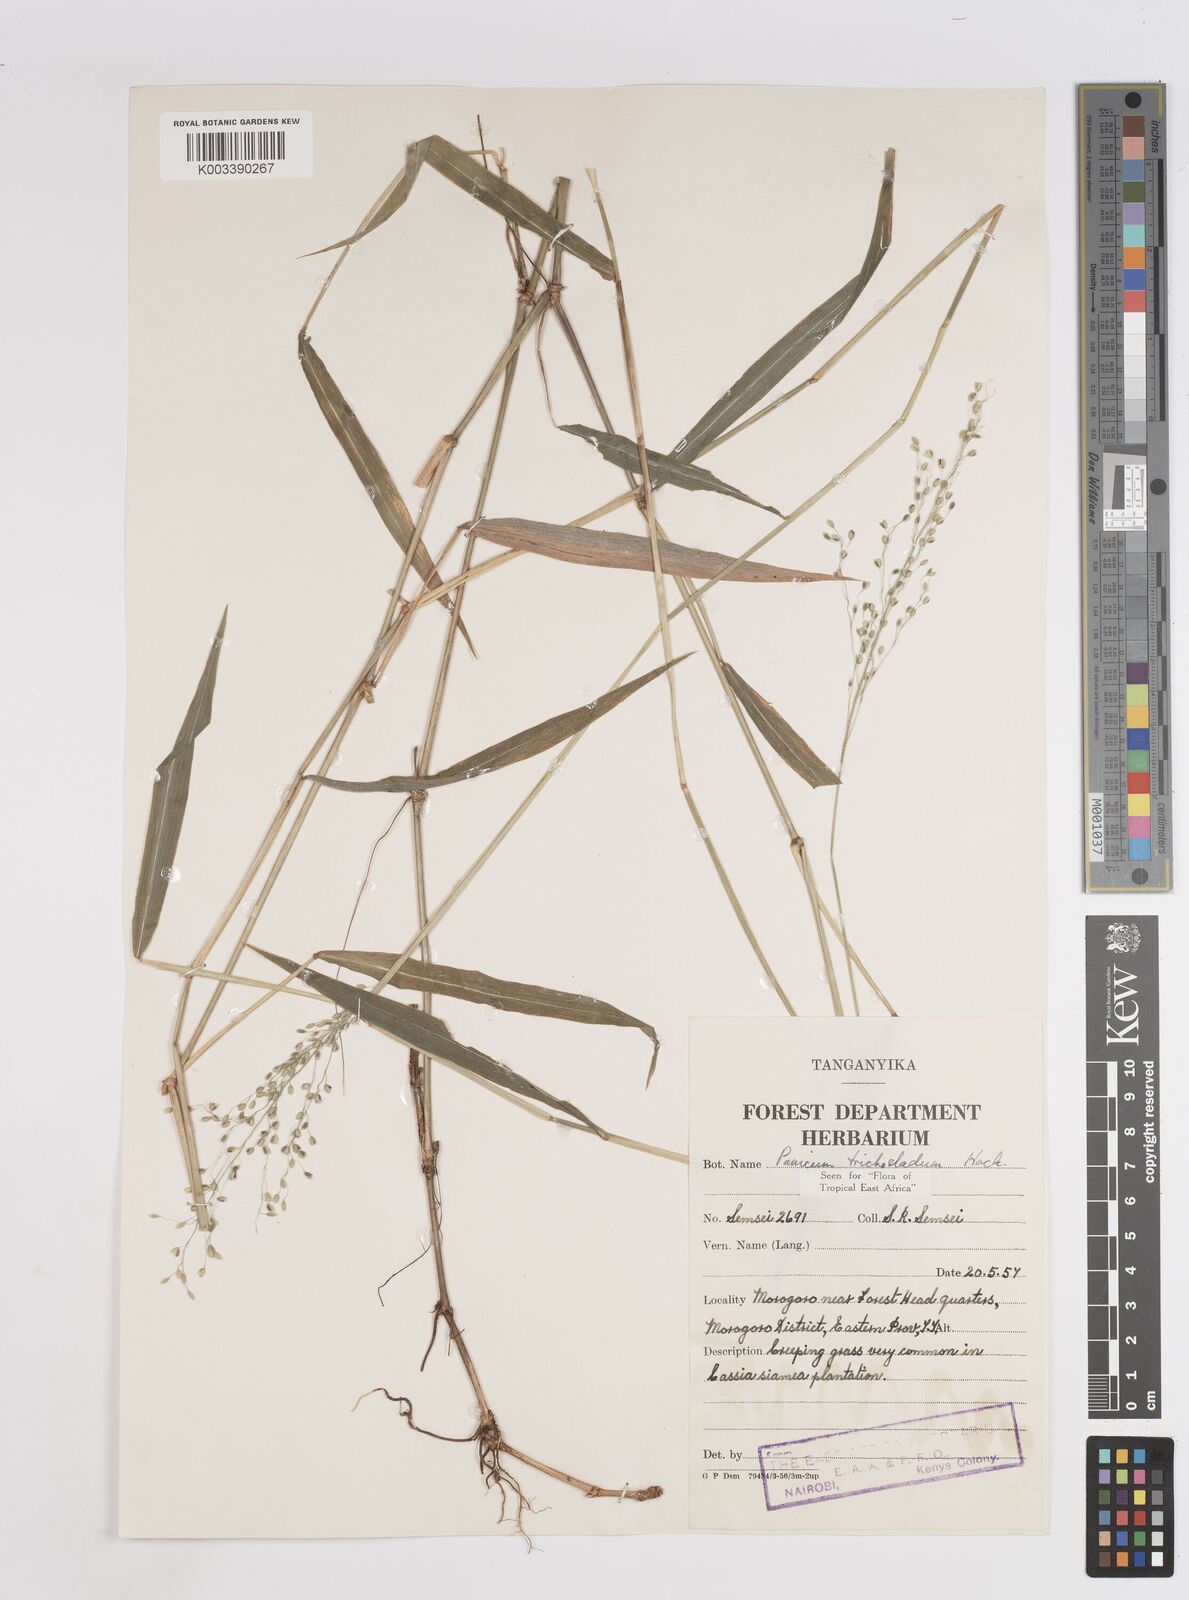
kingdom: Plantae
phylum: Tracheophyta
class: Liliopsida
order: Poales
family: Poaceae
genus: Panicum
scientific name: Panicum trichocladum
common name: Donkey grass
